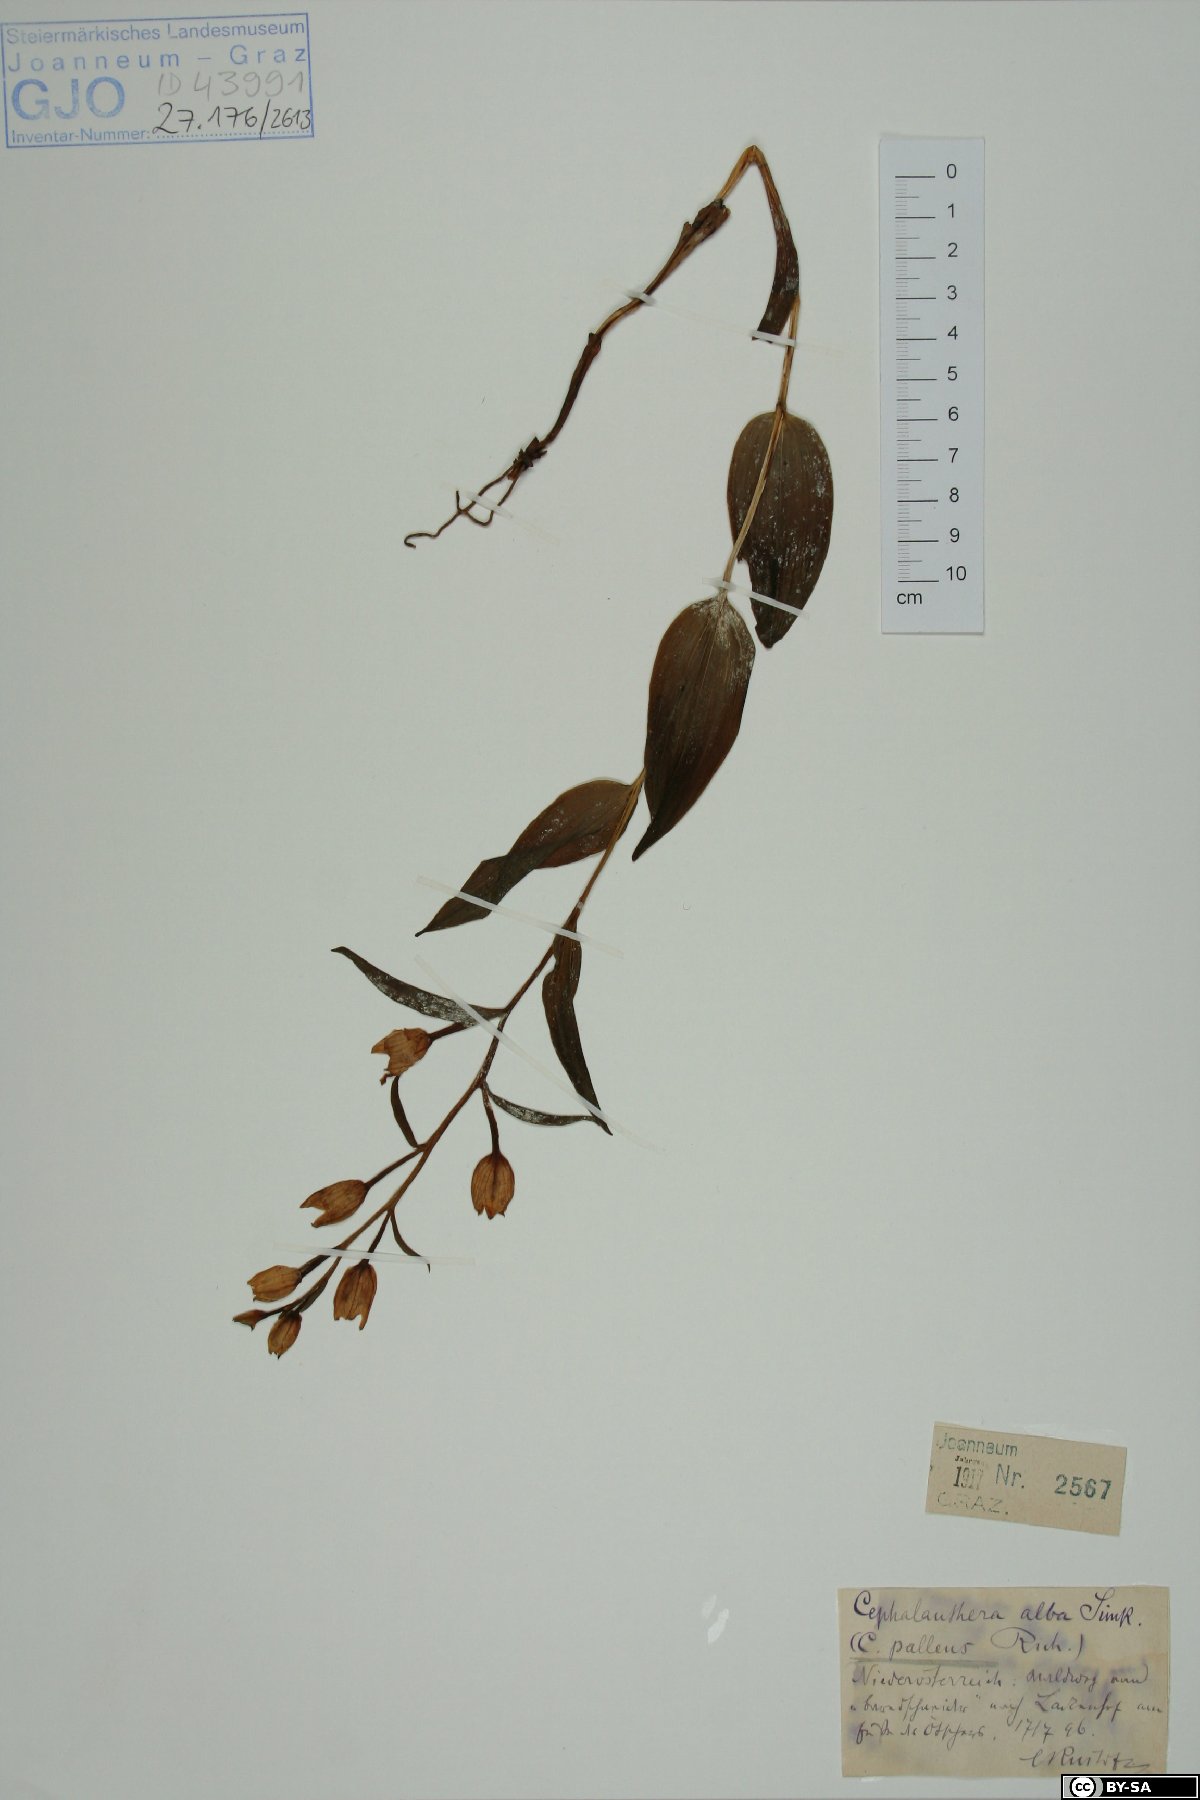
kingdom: Plantae
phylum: Tracheophyta
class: Liliopsida
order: Asparagales
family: Orchidaceae
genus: Cephalanthera
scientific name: Cephalanthera damasonium
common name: White helleborine
